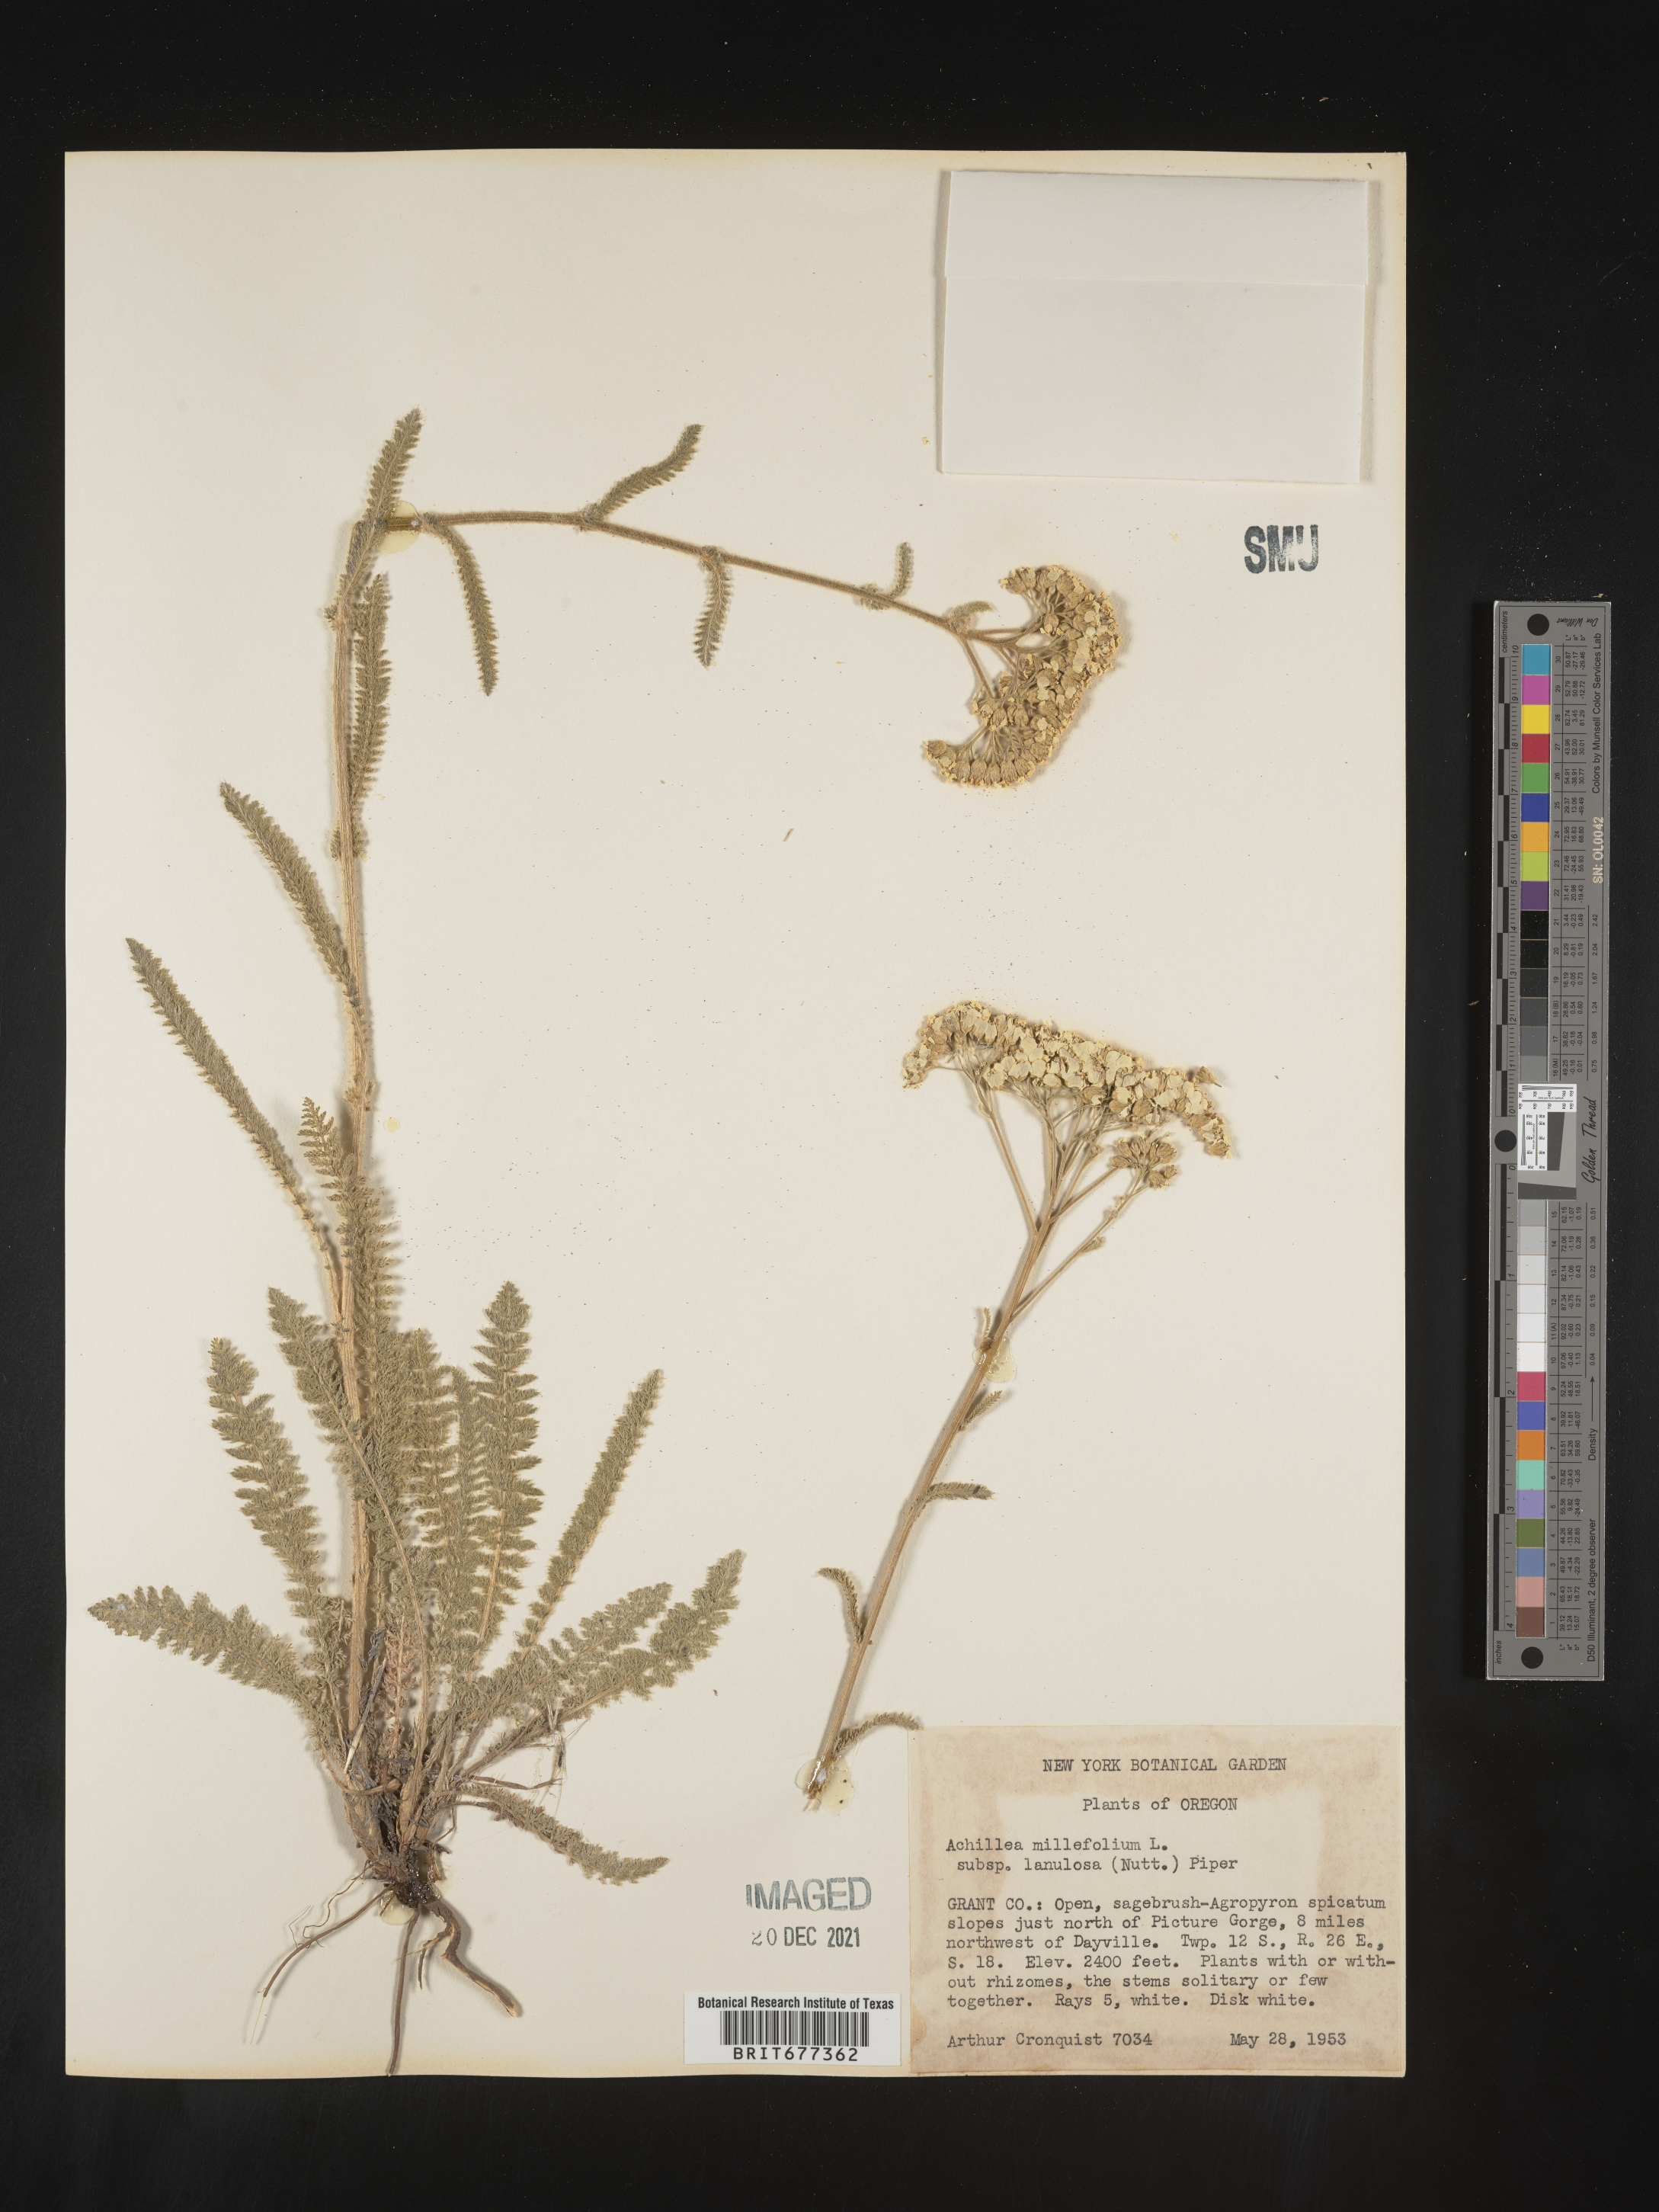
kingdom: Plantae
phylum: Tracheophyta
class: Magnoliopsida
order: Asterales
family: Asteraceae
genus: Achillea
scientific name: Achillea millefolium
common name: Yarrow
